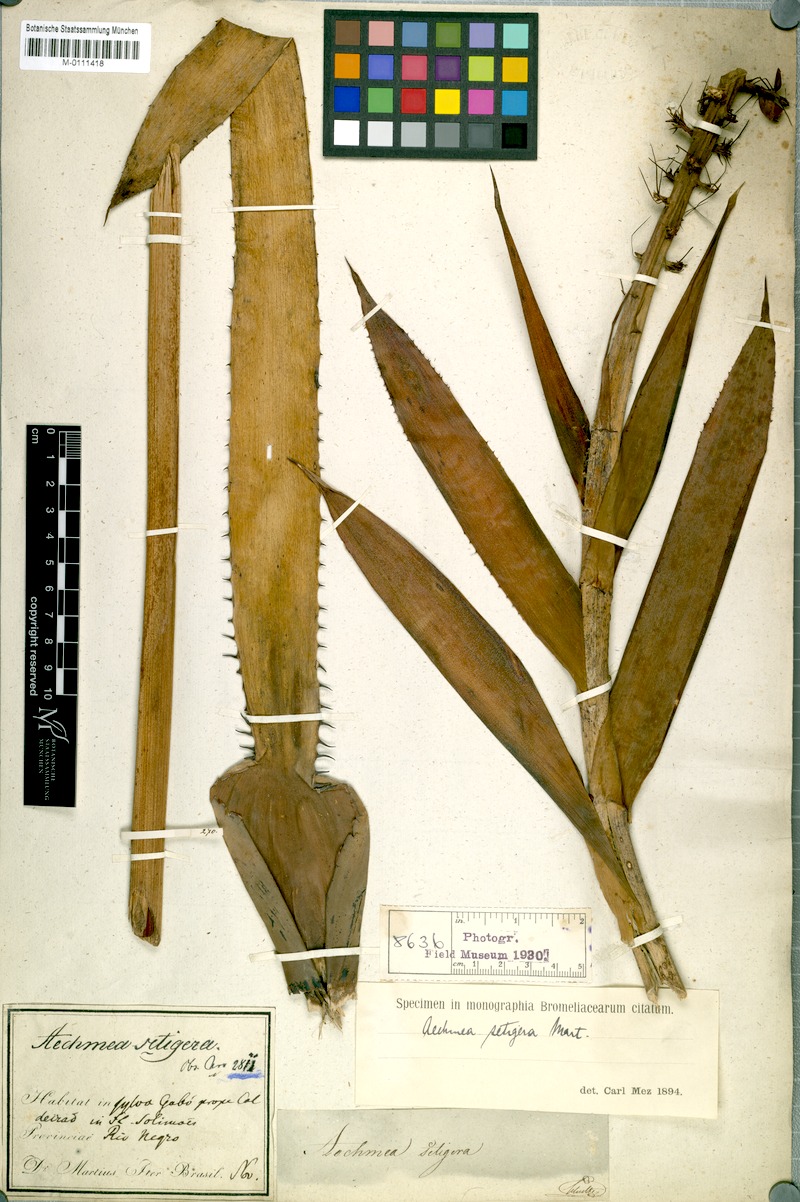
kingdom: Plantae
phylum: Tracheophyta
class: Liliopsida
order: Poales
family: Bromeliaceae
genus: Aechmea
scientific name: Aechmea setigera
